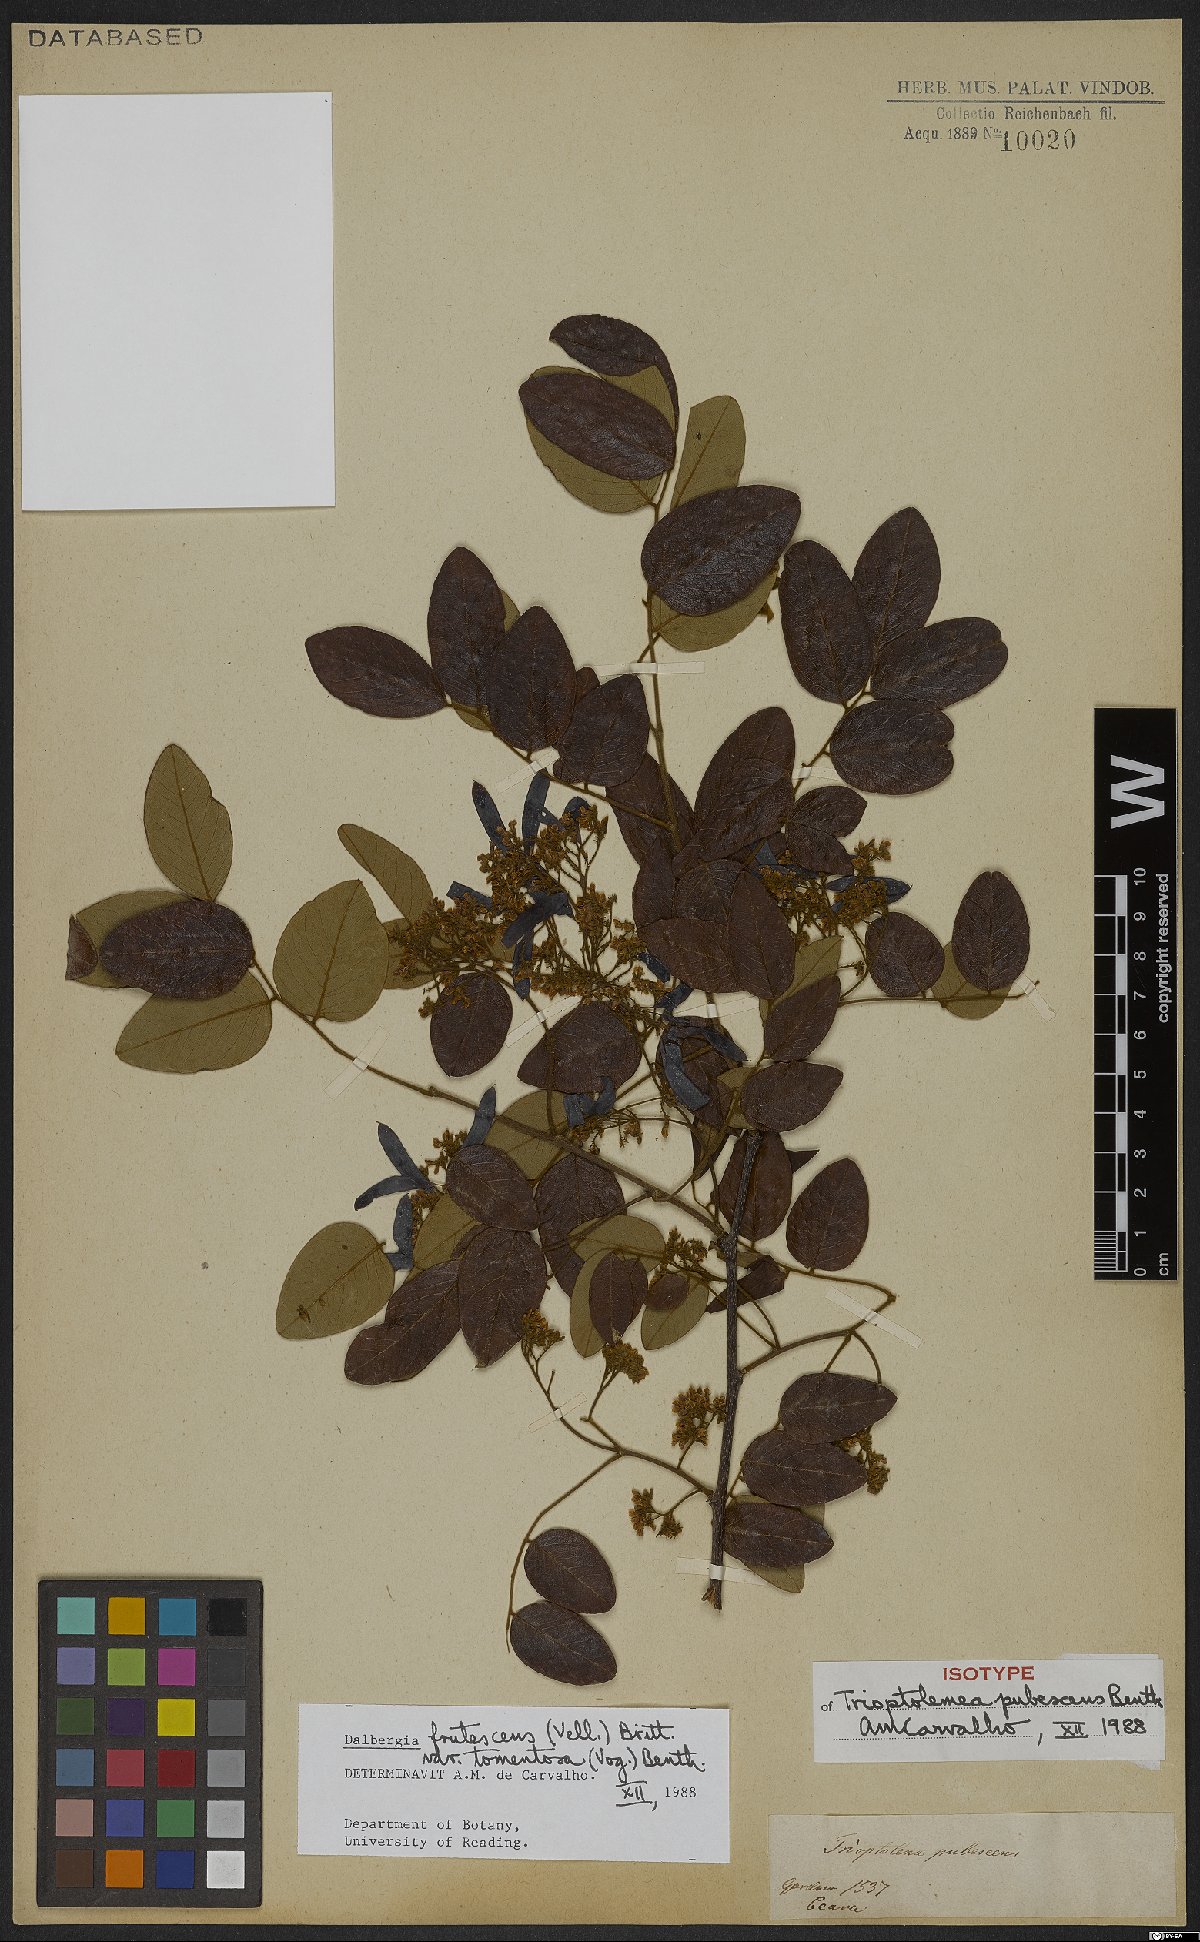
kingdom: Plantae
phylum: Tracheophyta
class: Magnoliopsida
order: Fabales
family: Fabaceae
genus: Dalbergia
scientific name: Dalbergia frutescens
